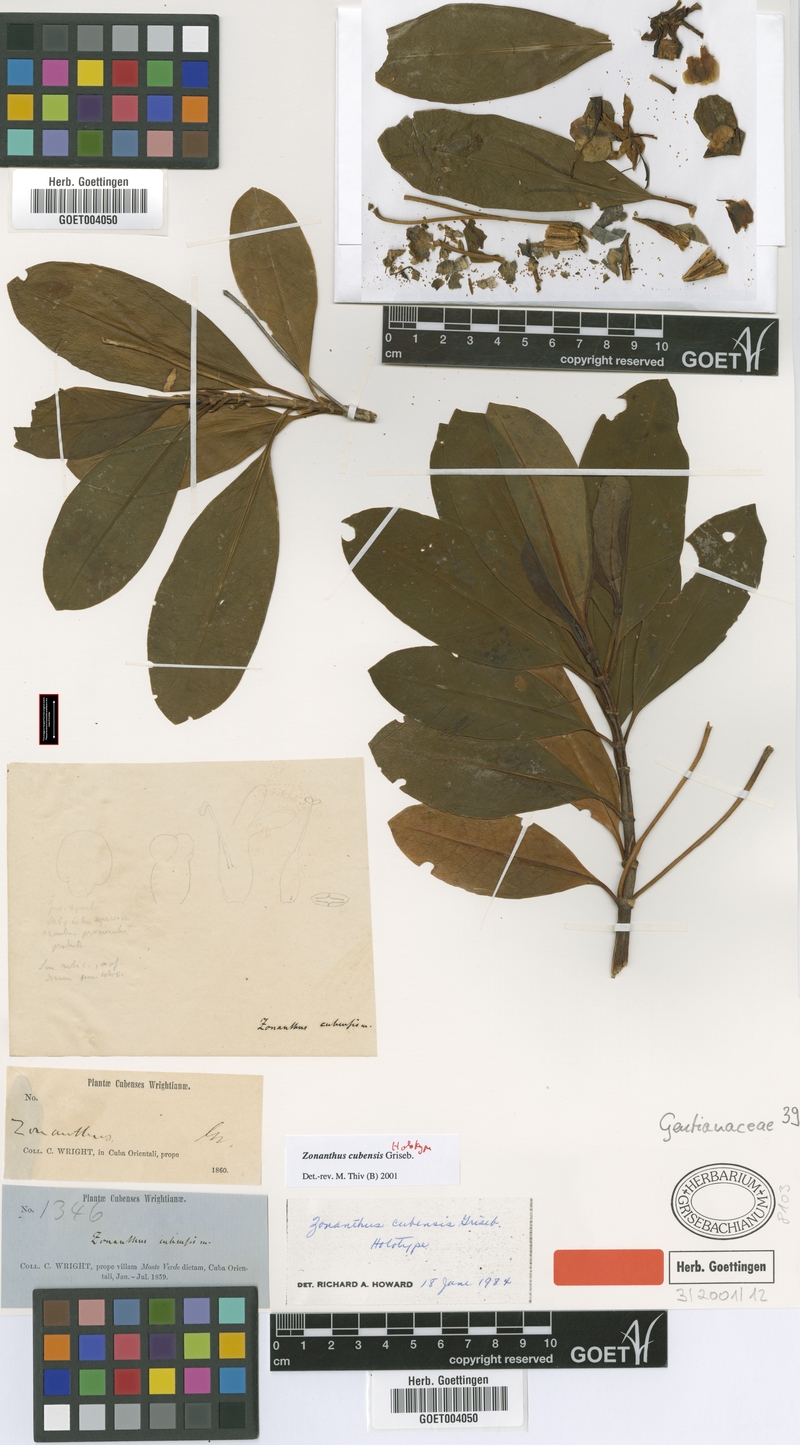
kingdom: Plantae
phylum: Tracheophyta
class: Magnoliopsida
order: Gentianales
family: Gentianaceae
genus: Zonanthus
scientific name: Zonanthus cubensis
